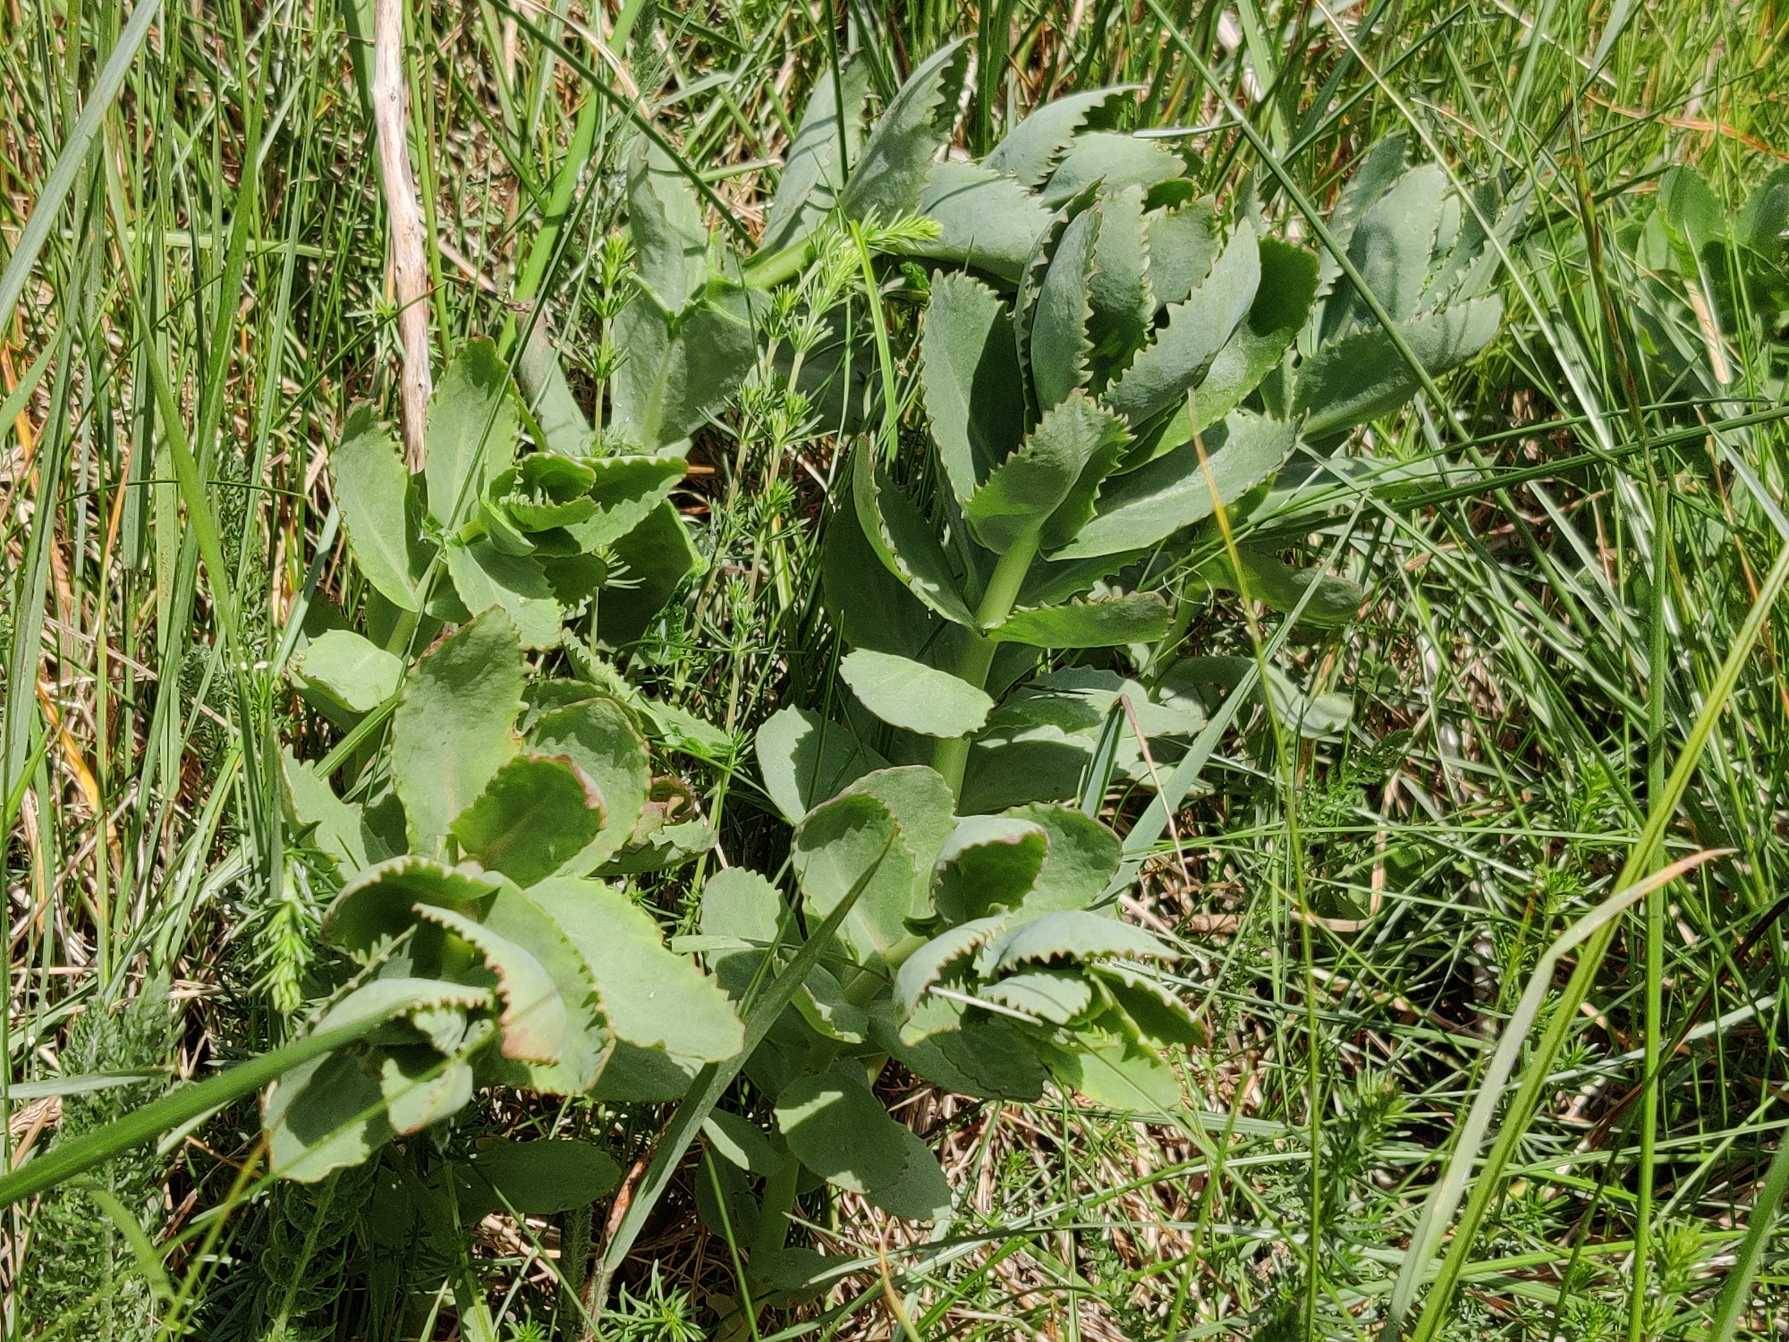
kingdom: Plantae
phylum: Tracheophyta
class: Magnoliopsida
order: Saxifragales
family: Crassulaceae
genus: Hylotelephium
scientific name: Hylotelephium maximum
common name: Almindelig sankthansurt
